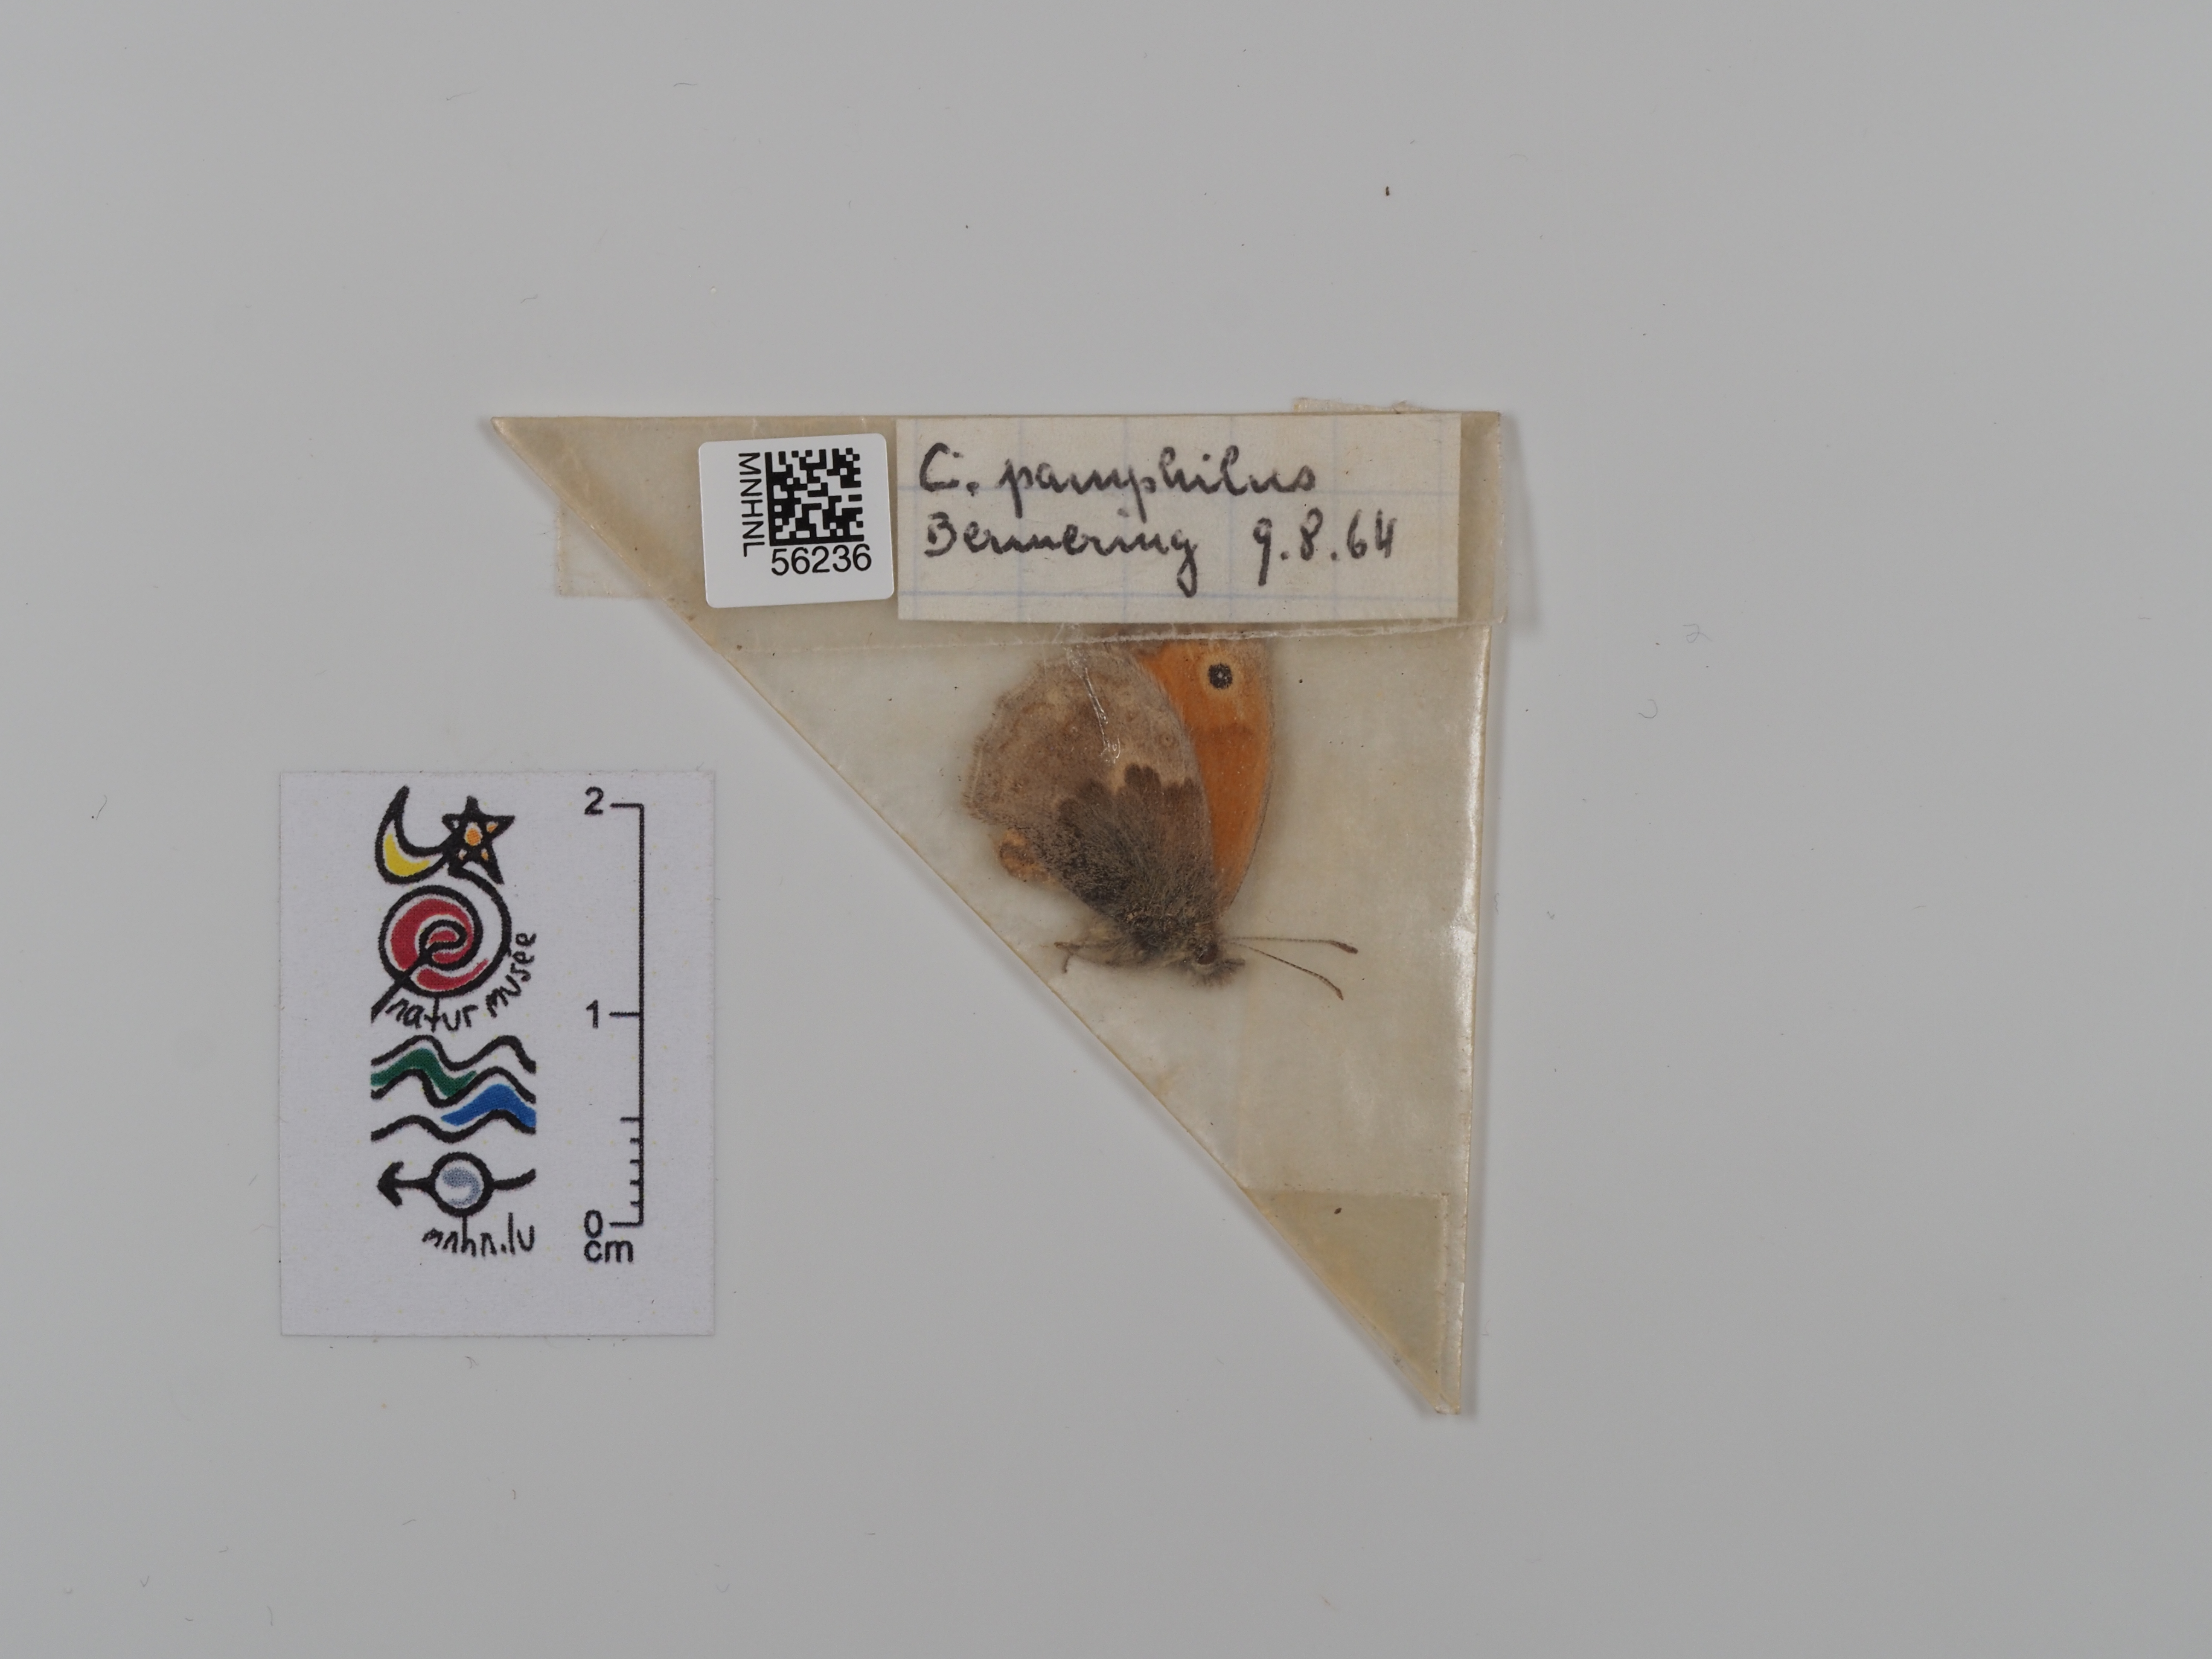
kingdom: Animalia
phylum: Arthropoda
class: Insecta
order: Lepidoptera
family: Nymphalidae
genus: Coenonympha
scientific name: Coenonympha pamphilus
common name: Small heath
